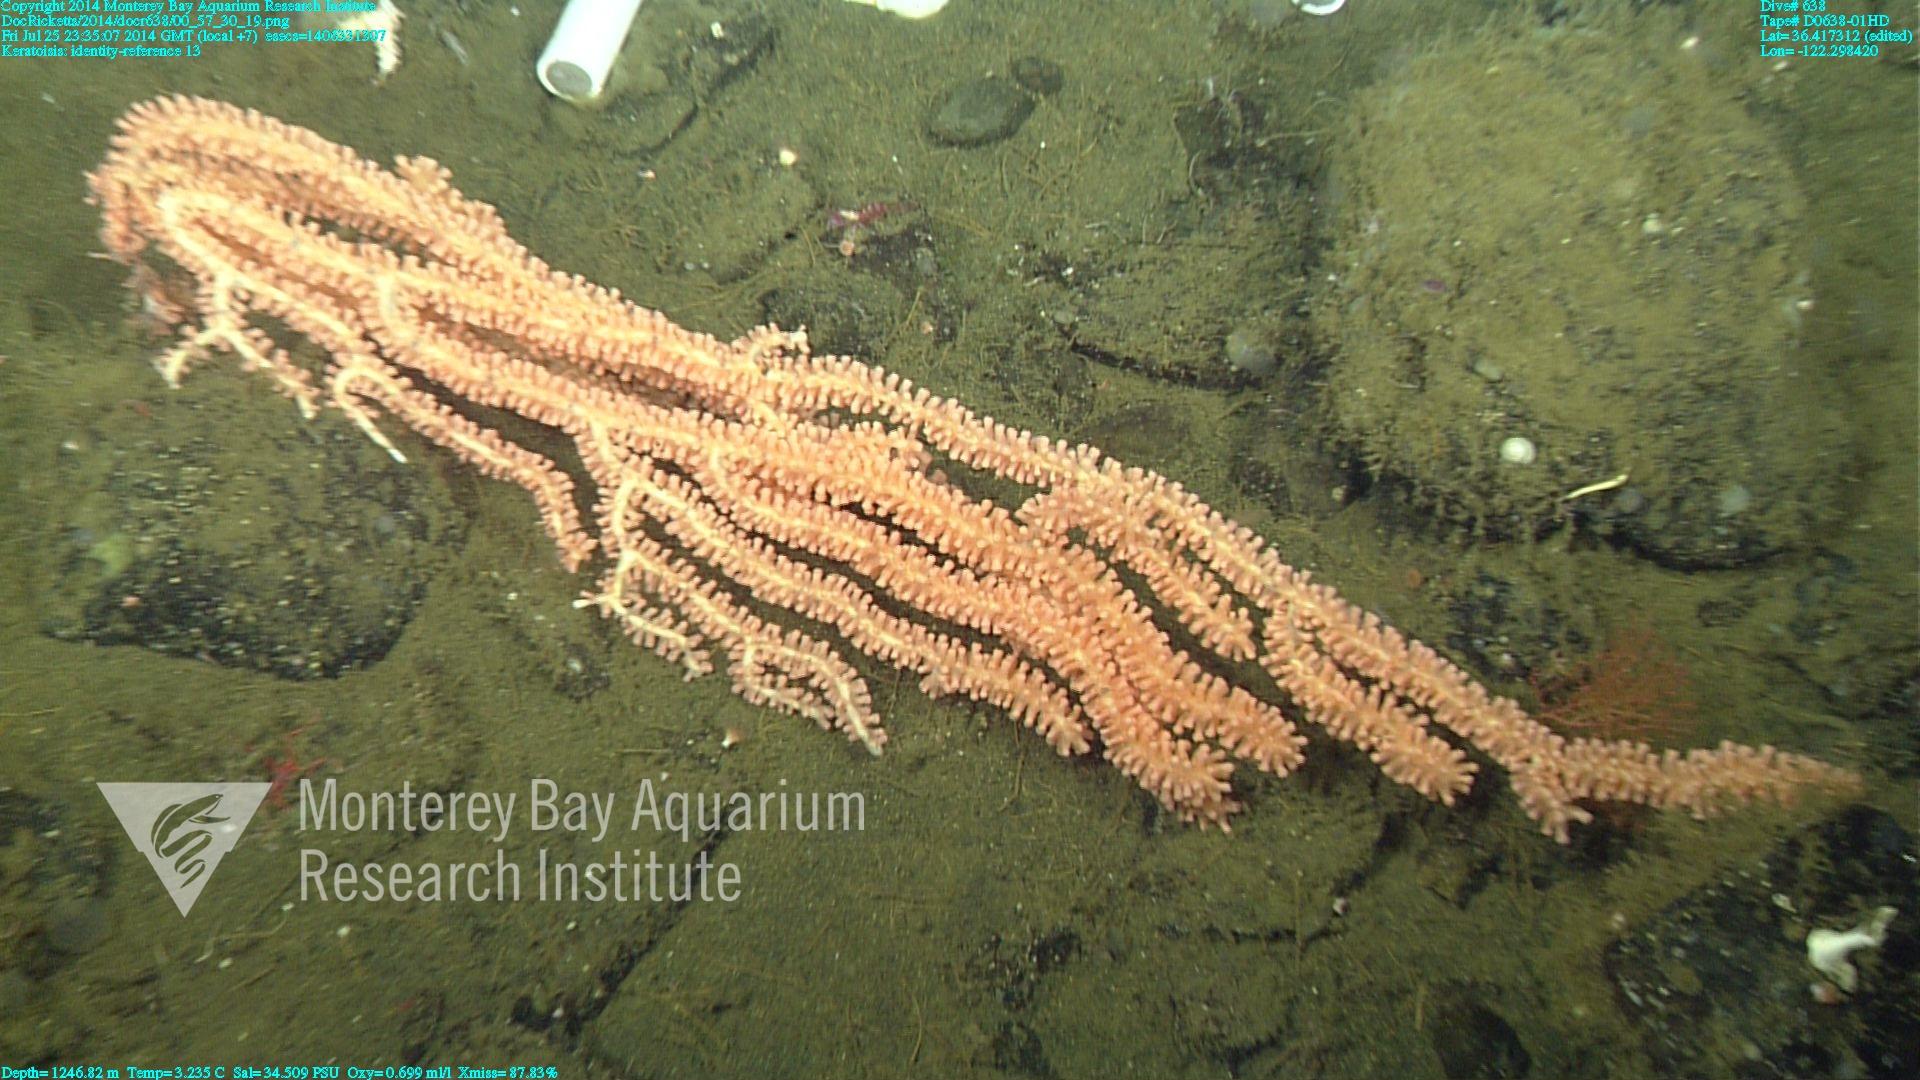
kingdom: Animalia
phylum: Cnidaria
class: Anthozoa
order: Scleralcyonacea
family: Keratoisididae
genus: Keratoisis
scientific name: Keratoisis
